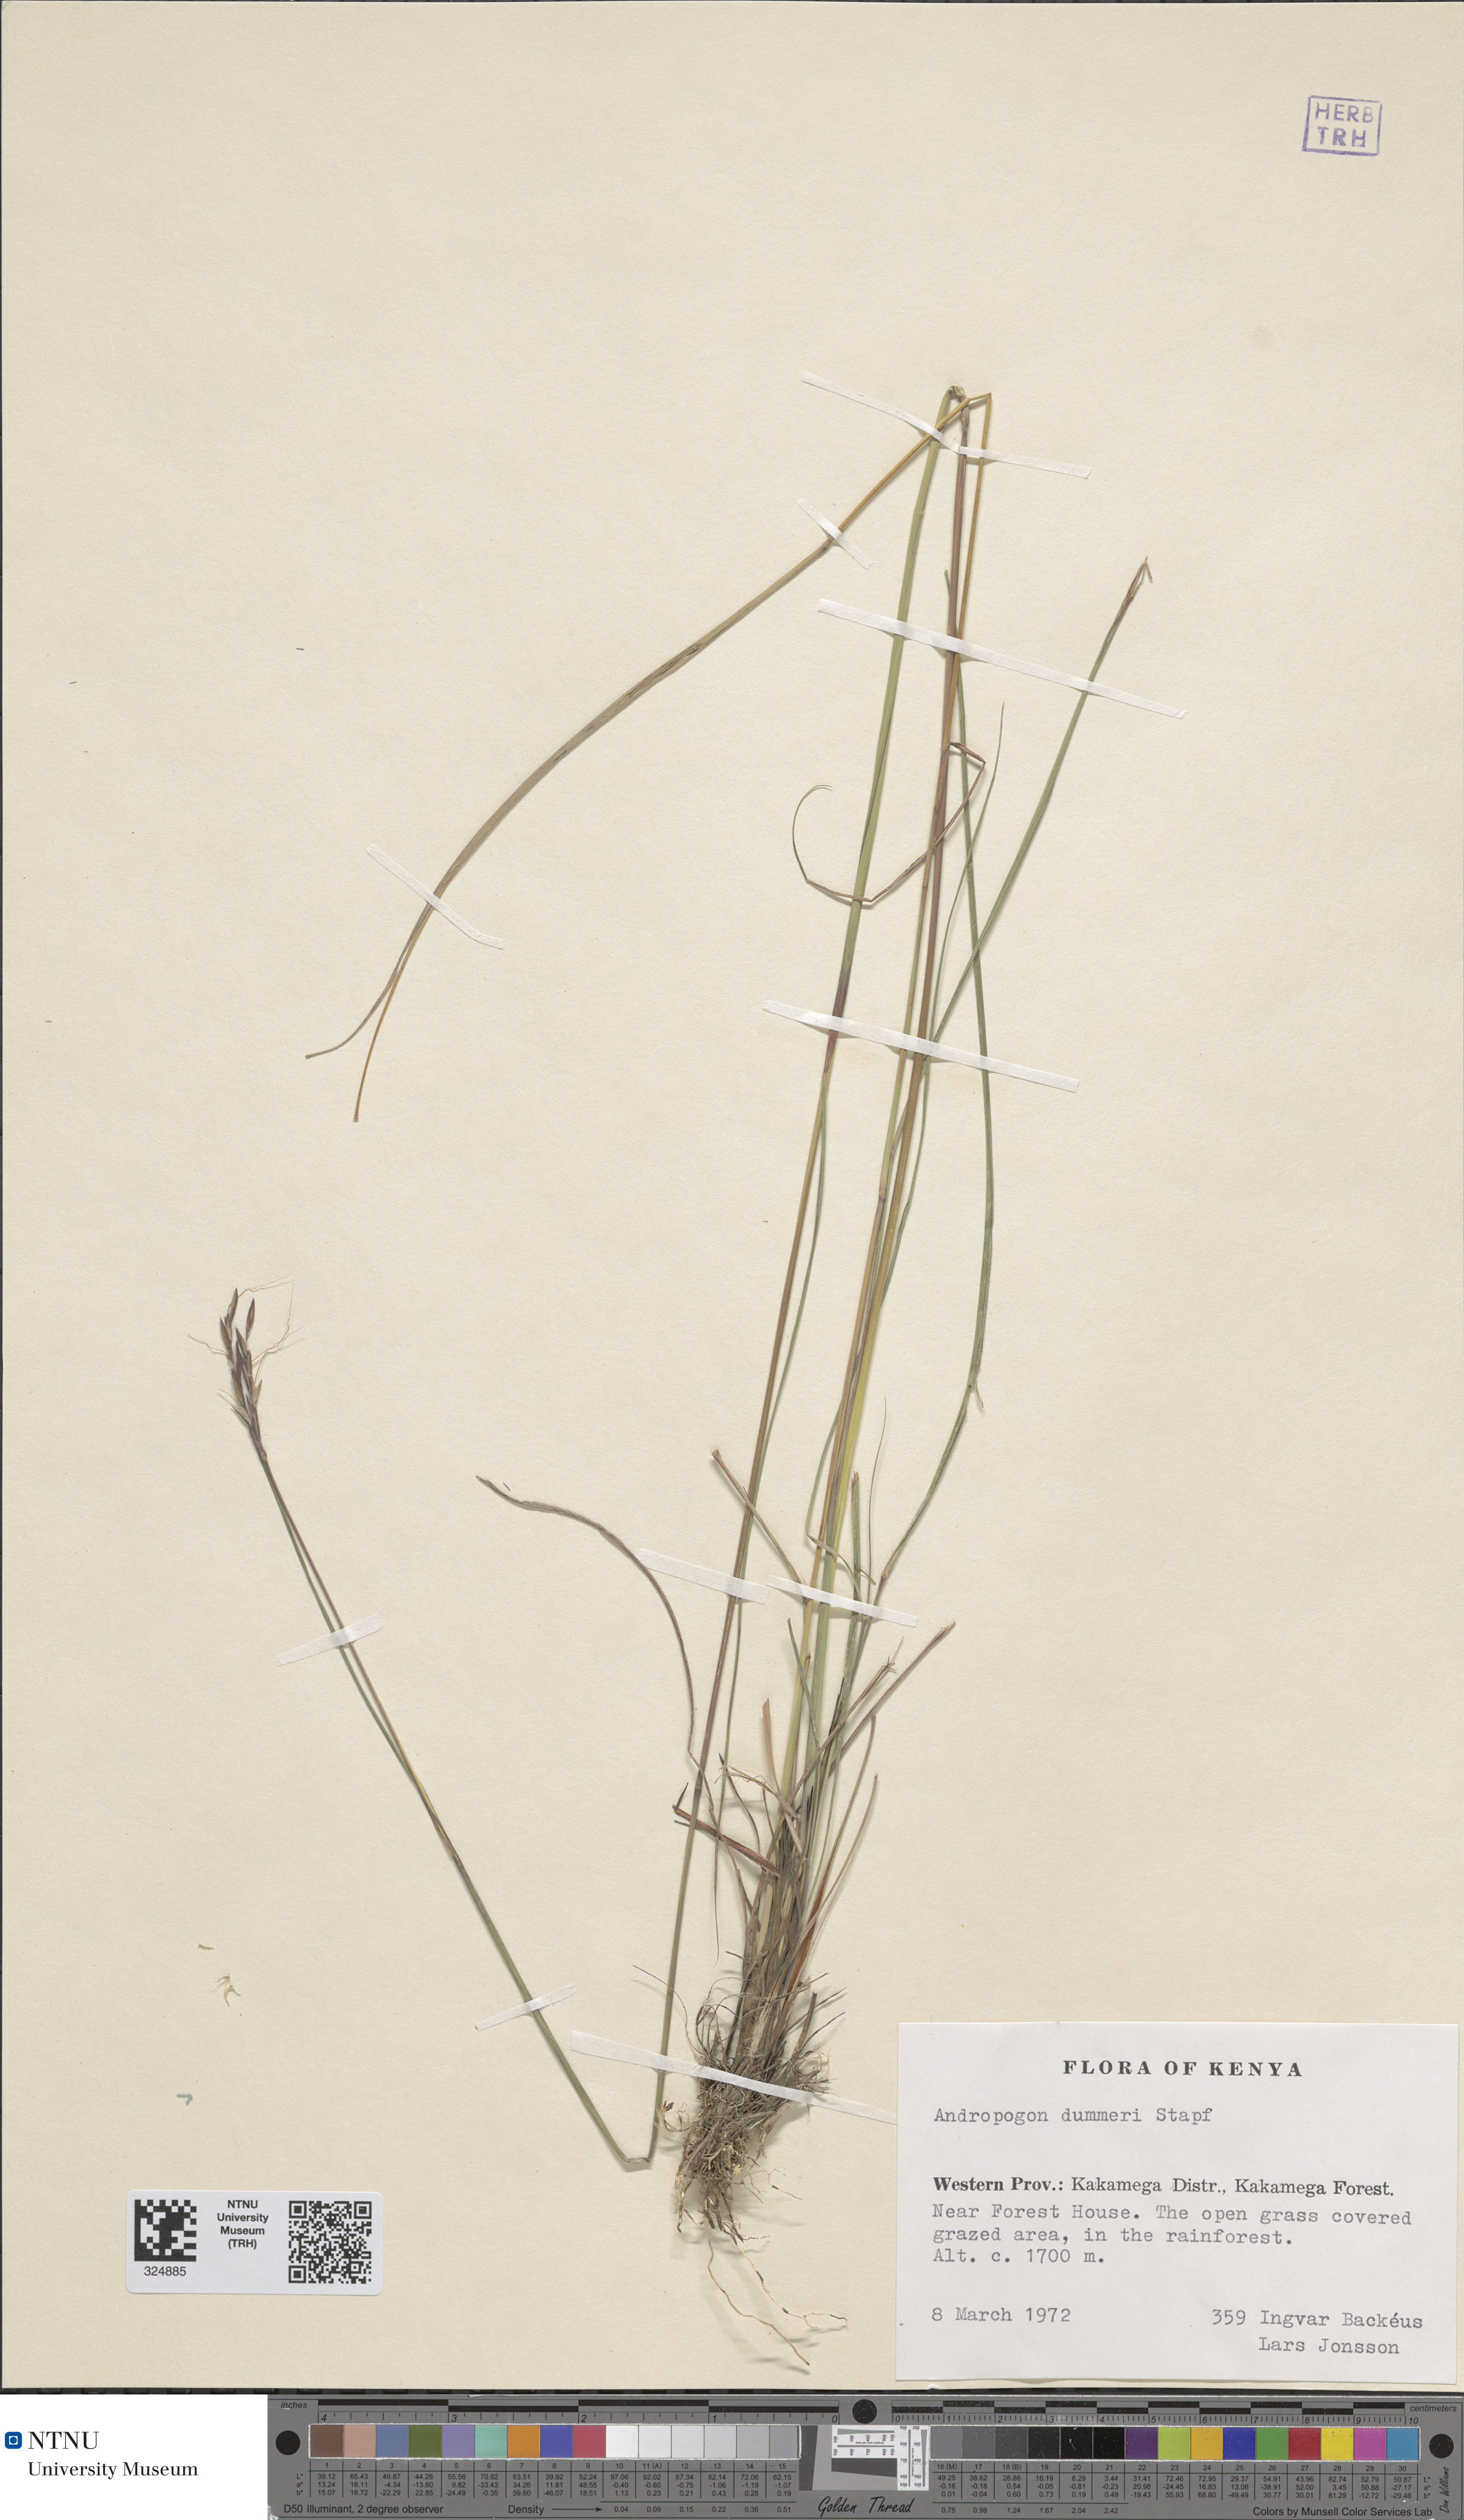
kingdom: Plantae
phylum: Tracheophyta
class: Liliopsida
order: Poales
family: Poaceae
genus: Andropogon
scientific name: Andropogon schirensis
